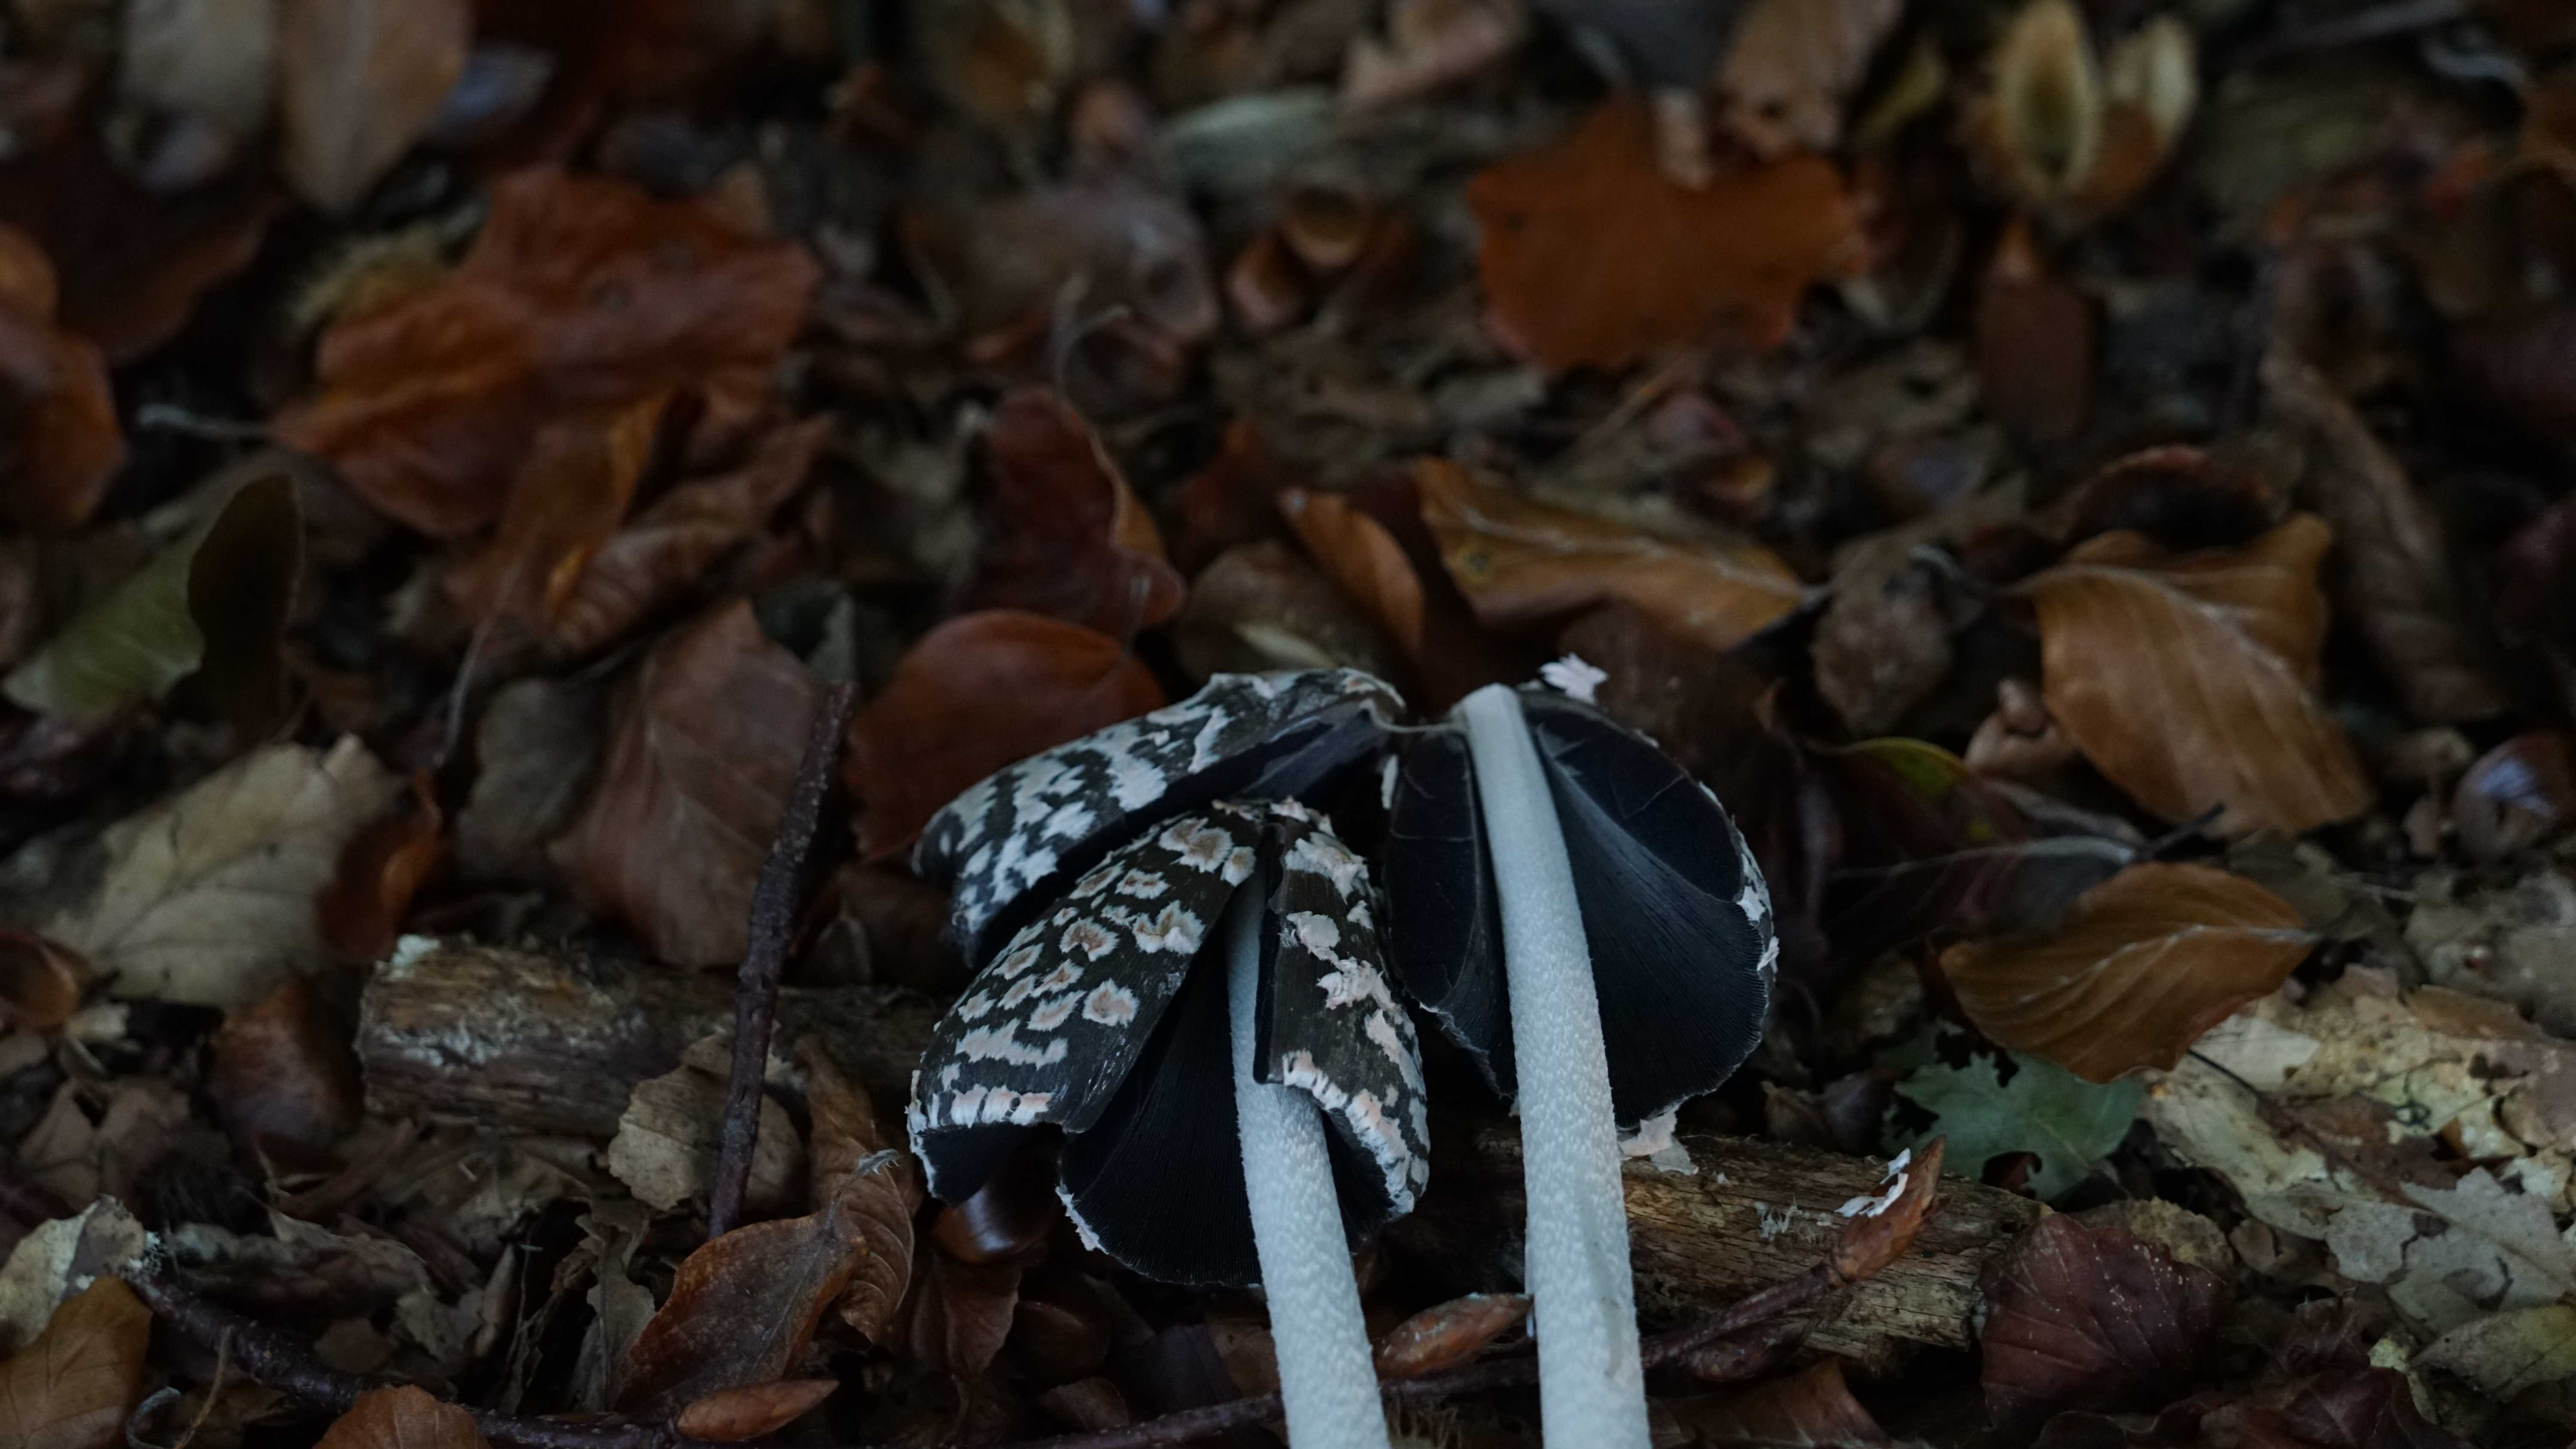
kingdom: Fungi
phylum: Basidiomycota
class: Agaricomycetes
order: Agaricales
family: Psathyrellaceae
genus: Coprinopsis
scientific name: Coprinopsis picacea
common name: skade-blækhat
